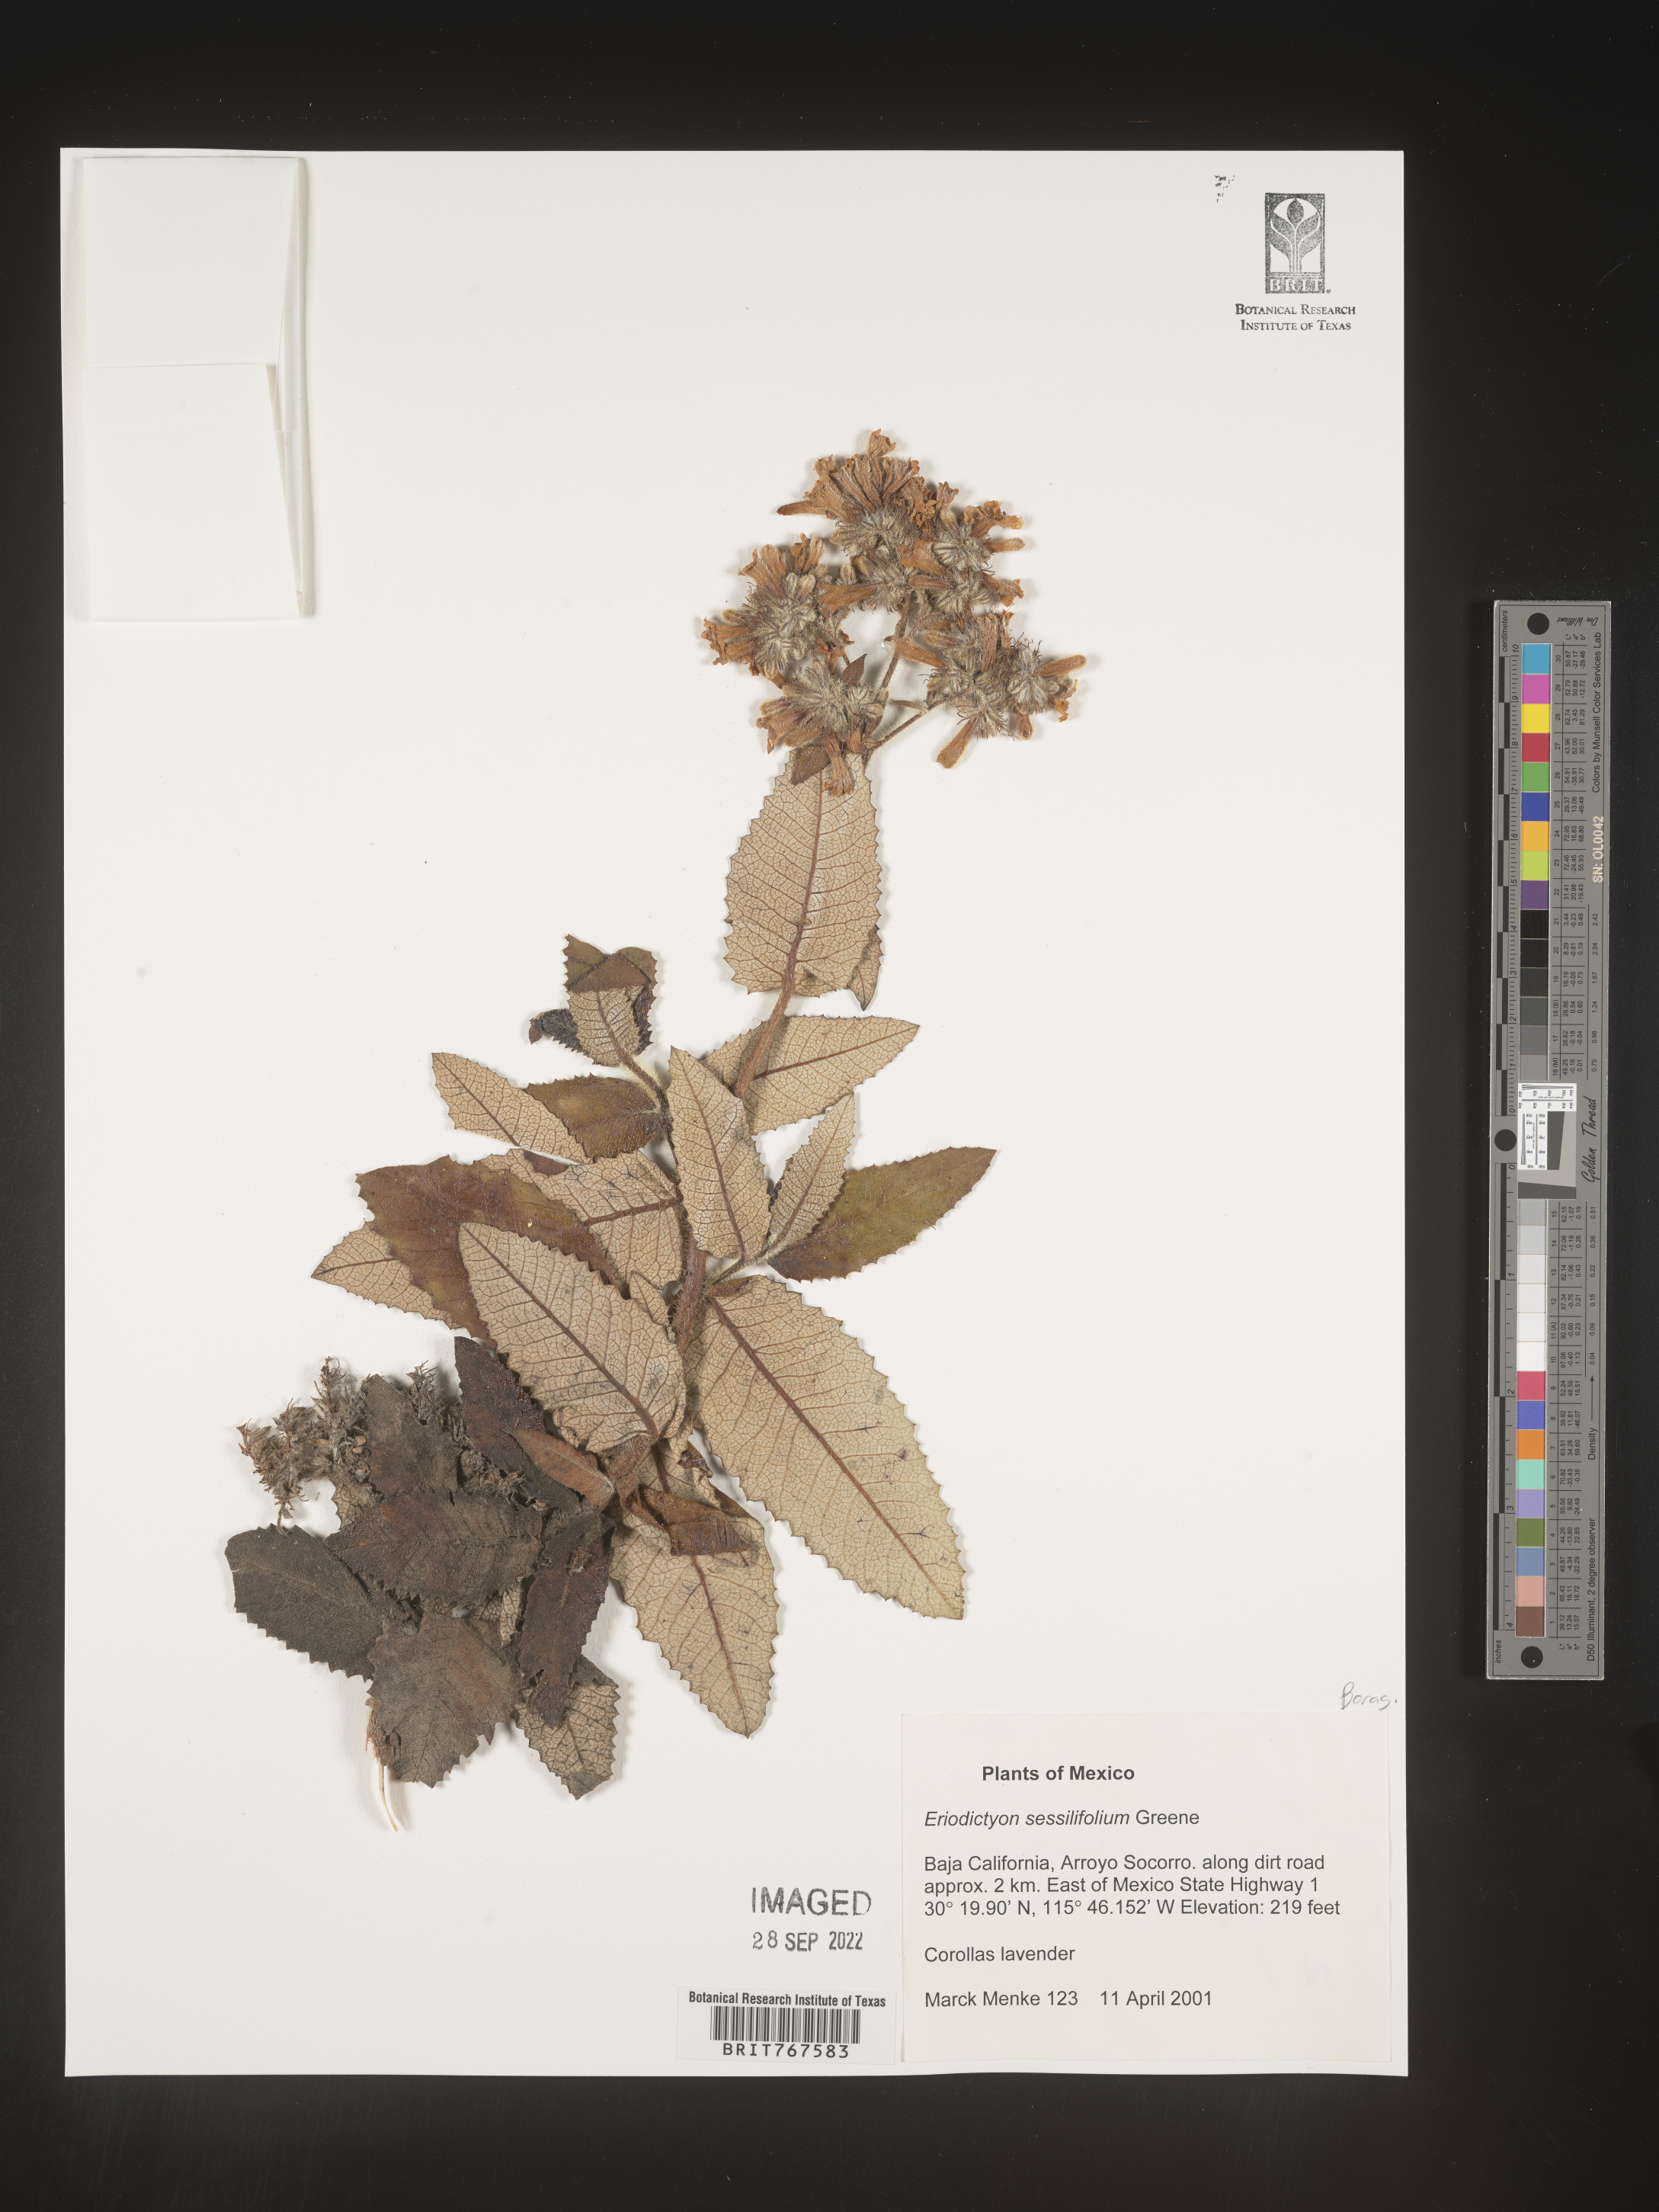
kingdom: Plantae
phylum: Tracheophyta
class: Magnoliopsida
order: Boraginales
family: Namaceae
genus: Eriodictyon
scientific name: Eriodictyon
